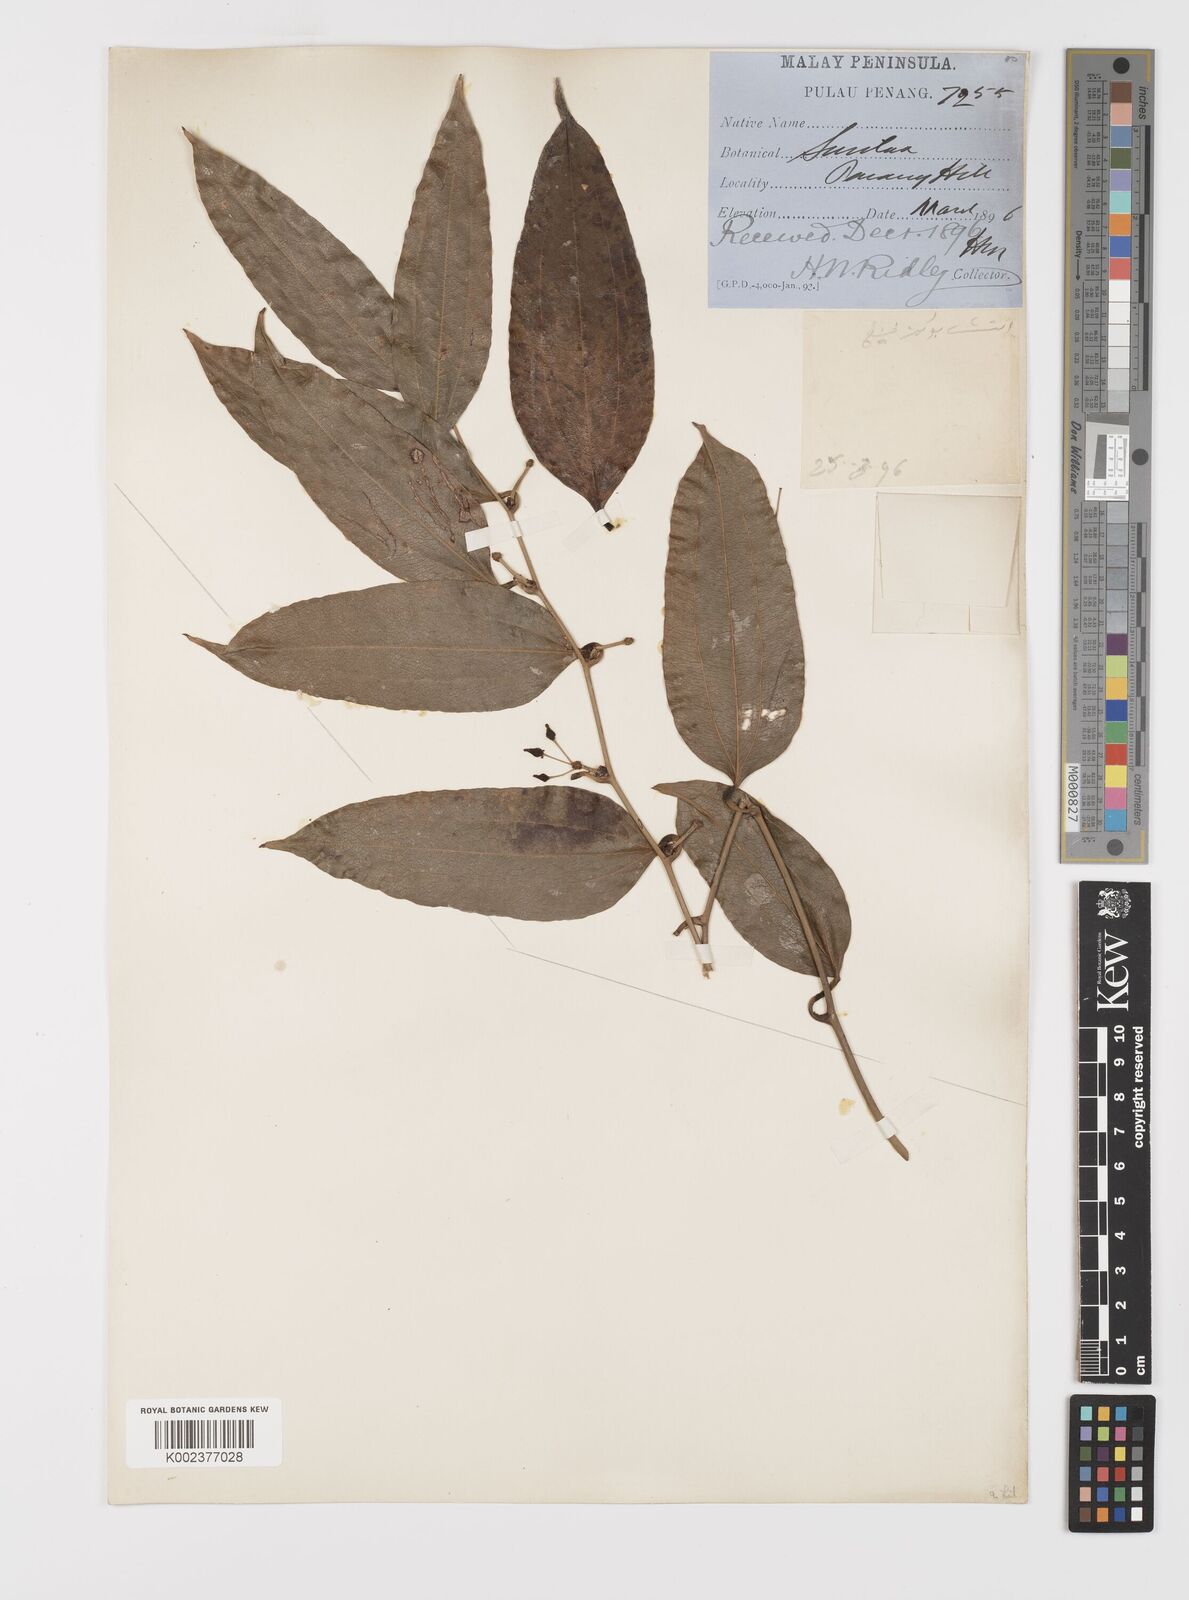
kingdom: Plantae
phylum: Tracheophyta
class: Liliopsida
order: Liliales
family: Smilacaceae
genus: Smilax
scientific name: Smilax laevis
